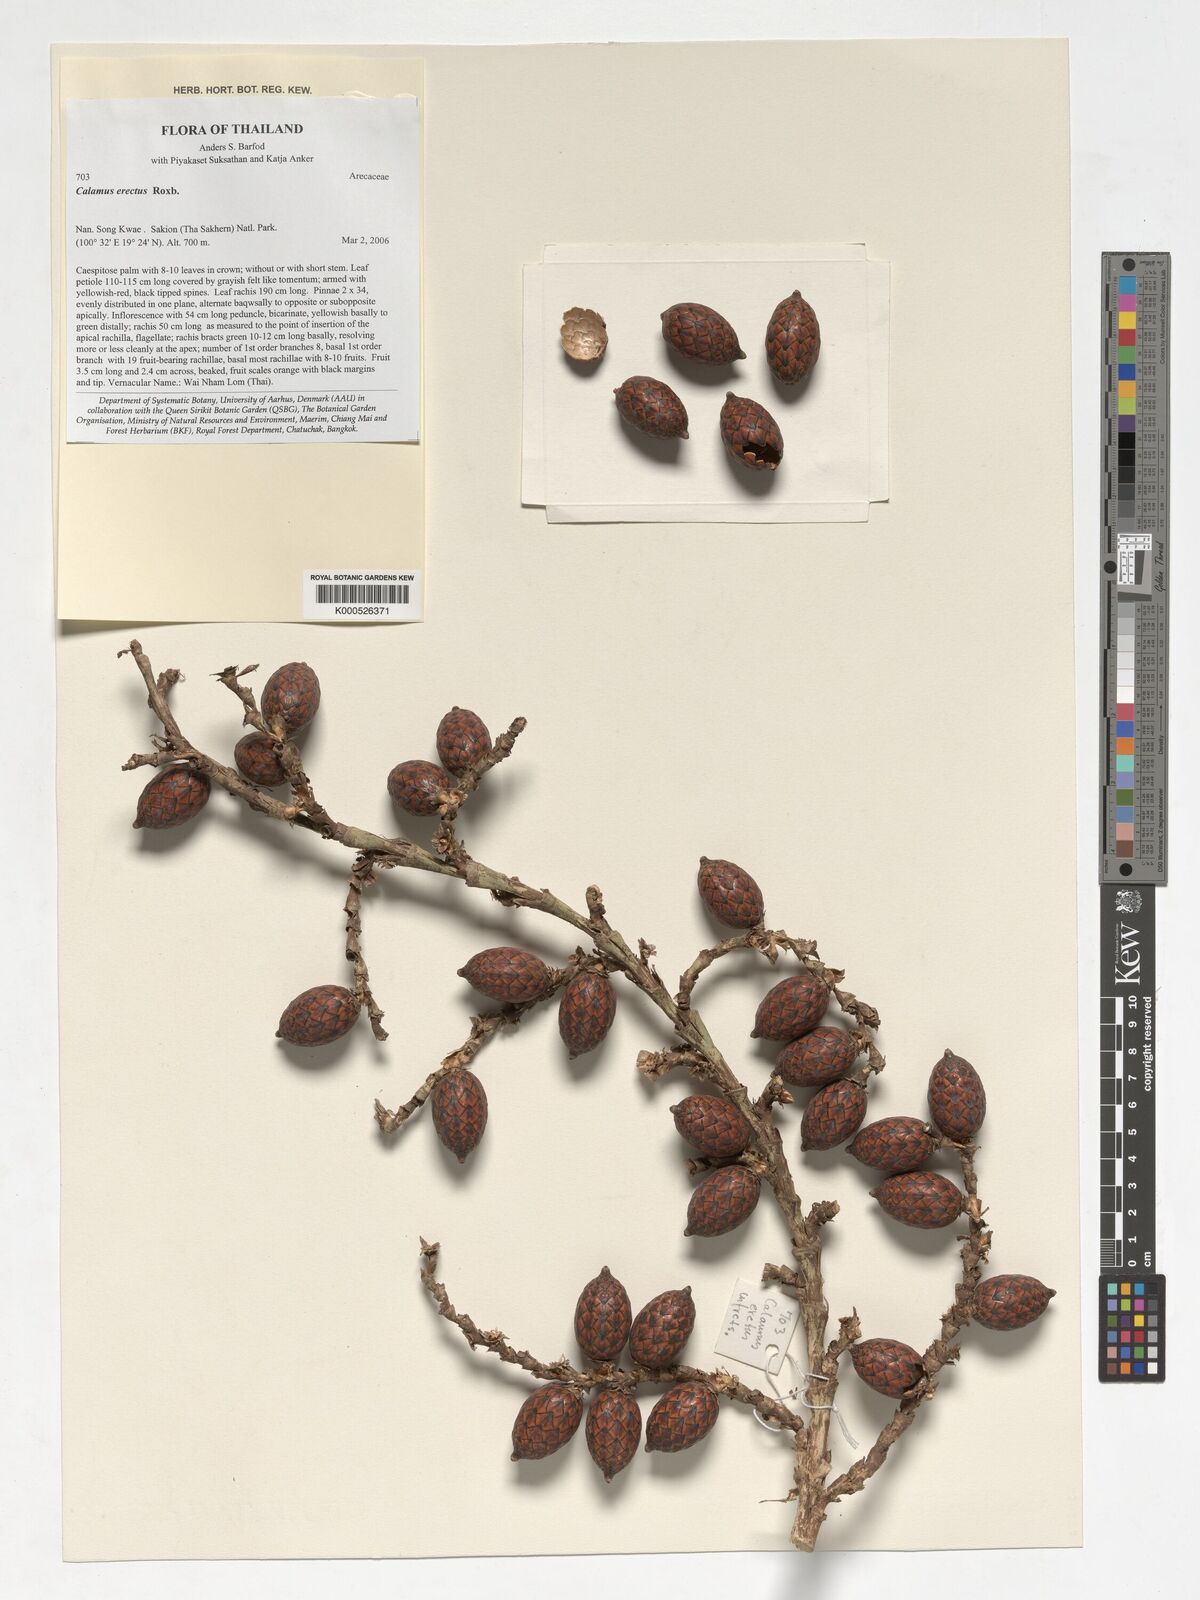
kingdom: Plantae
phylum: Tracheophyta
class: Liliopsida
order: Arecales
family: Arecaceae
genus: Calamus
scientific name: Calamus erectus
